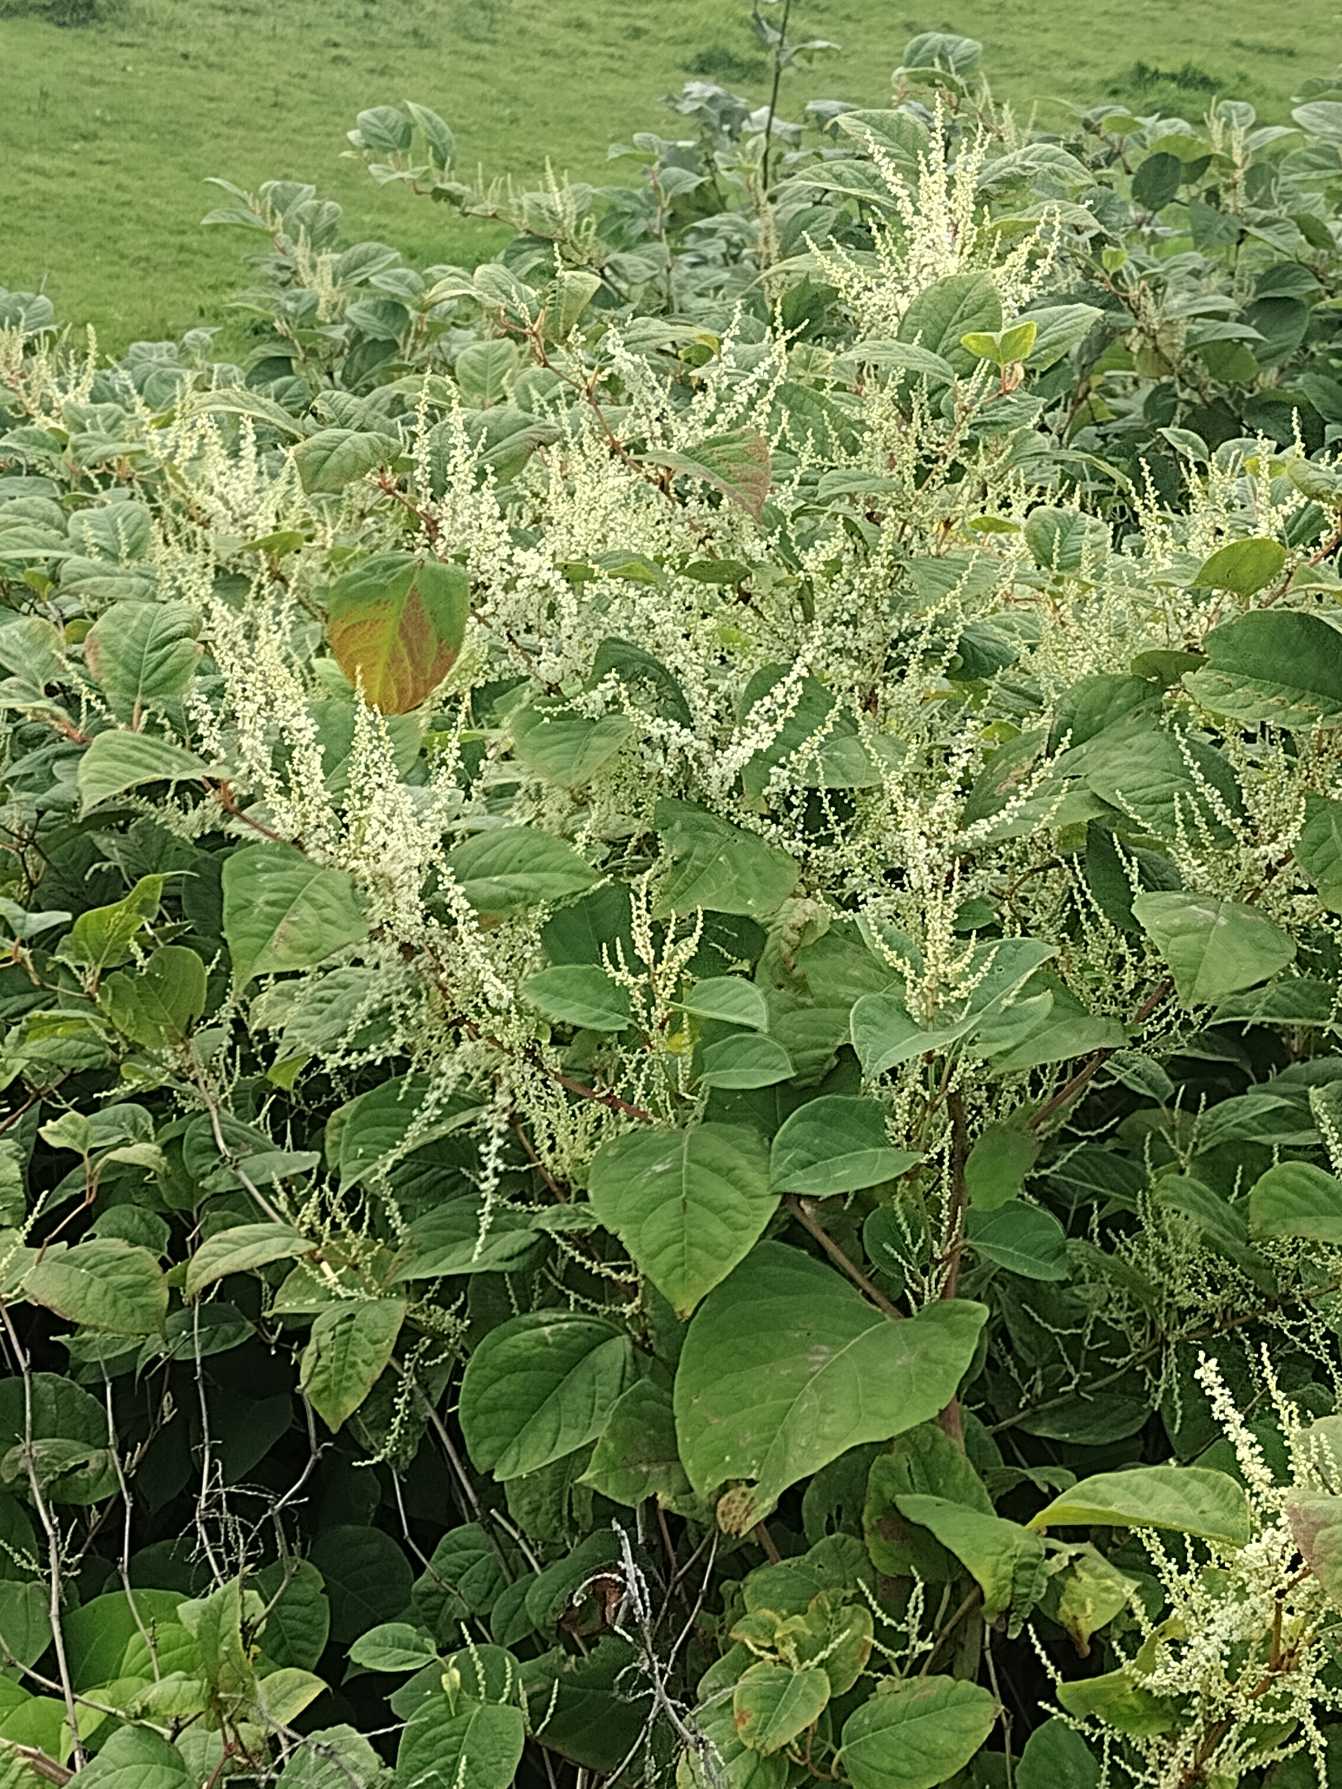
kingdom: Plantae
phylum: Tracheophyta
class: Magnoliopsida
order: Caryophyllales
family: Polygonaceae
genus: Reynoutria
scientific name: Reynoutria japonica
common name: Japan-pileurt
